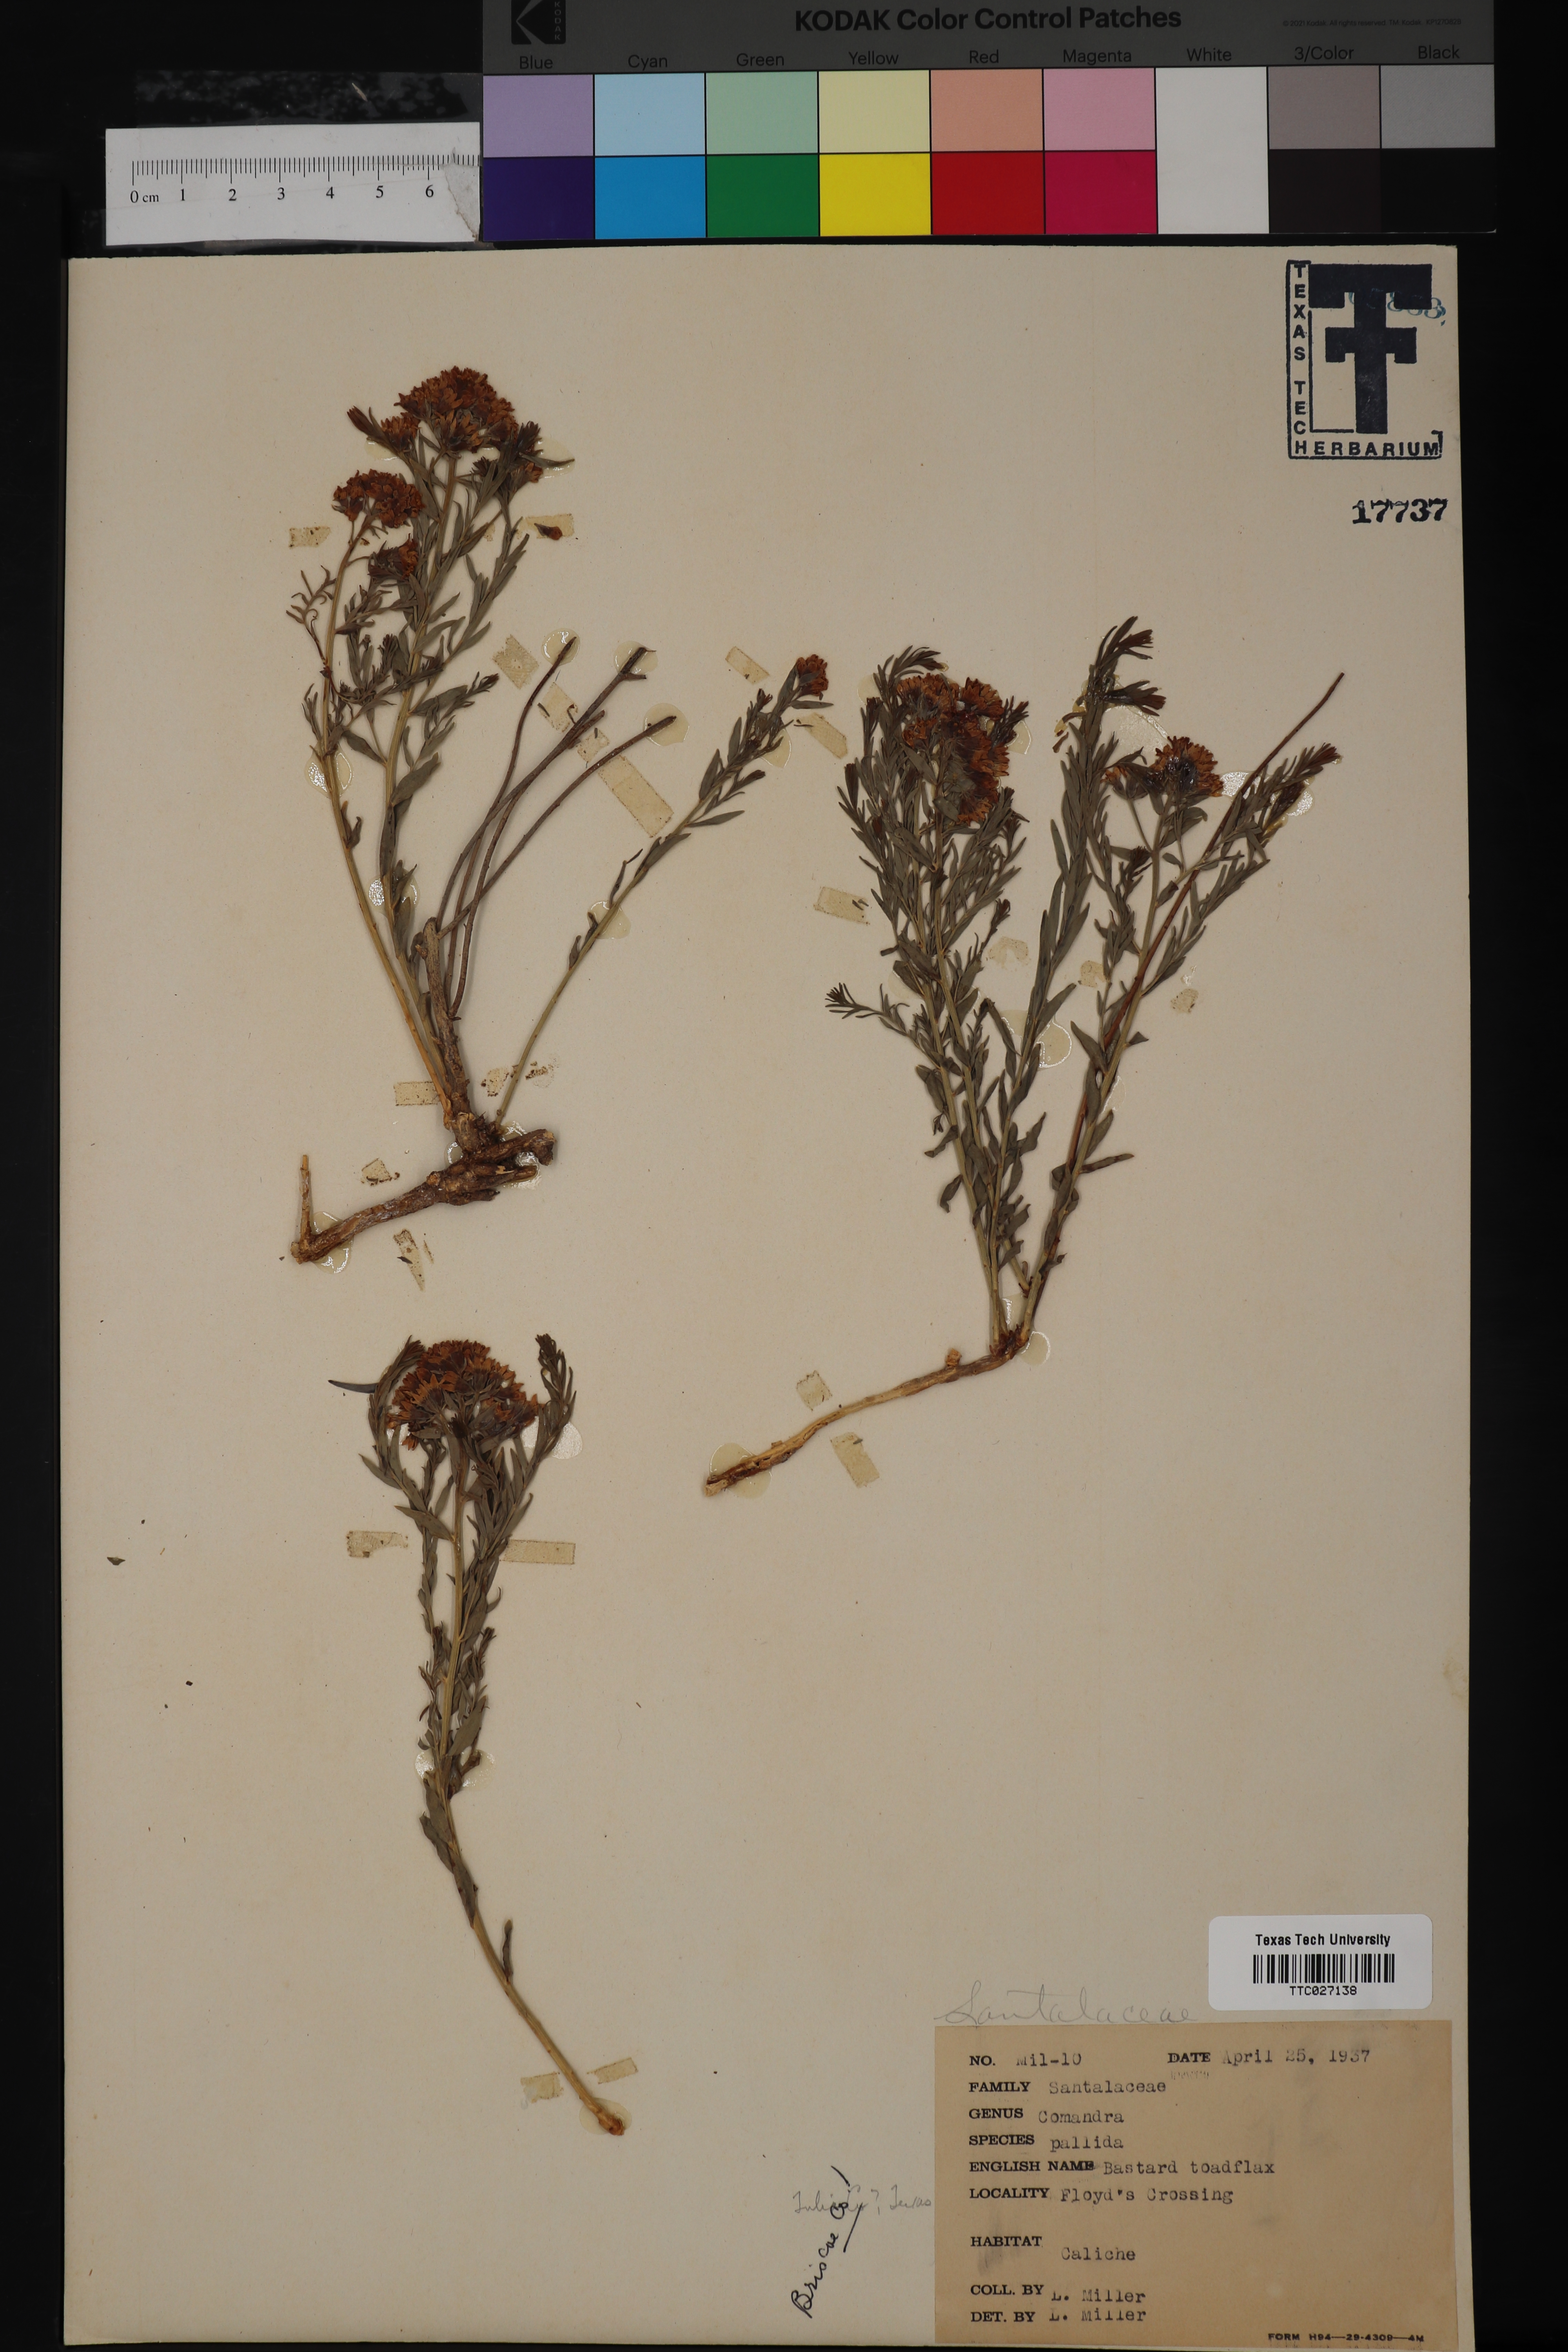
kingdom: Plantae
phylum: Tracheophyta
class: Magnoliopsida
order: Santalales
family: Comandraceae
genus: Comandra
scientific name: Comandra umbellata
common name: Bastard toadflax
